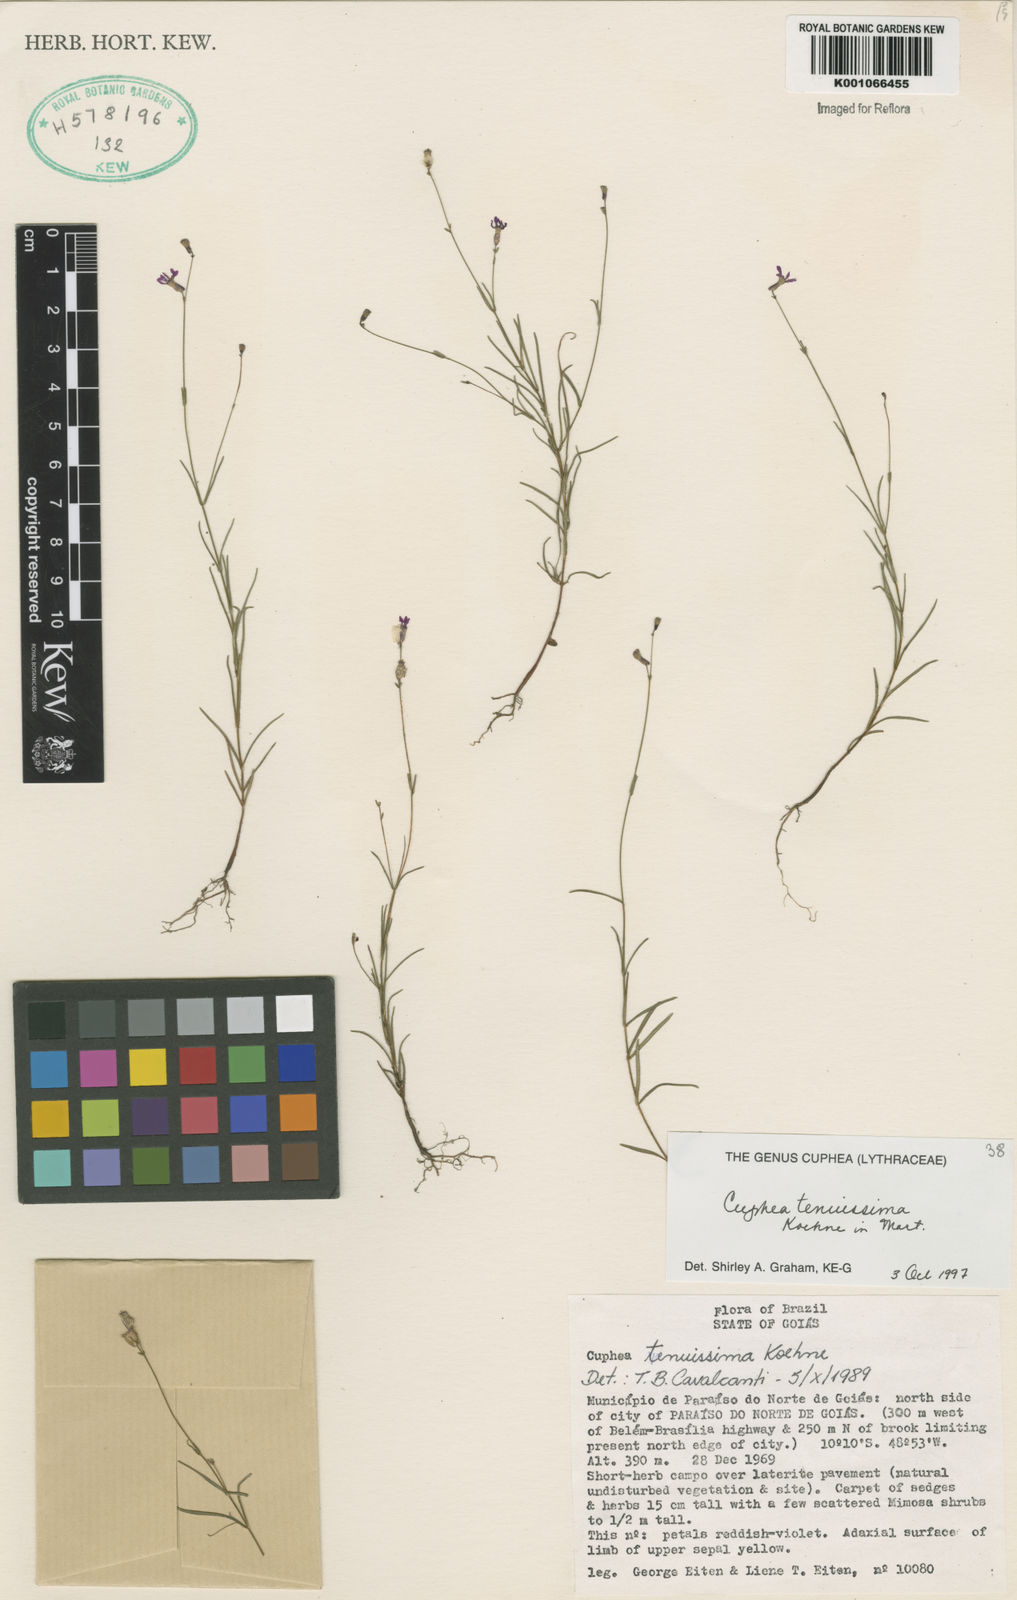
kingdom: Plantae
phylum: Tracheophyta
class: Magnoliopsida
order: Myrtales
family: Lythraceae
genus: Cuphea
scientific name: Cuphea tenuissima
